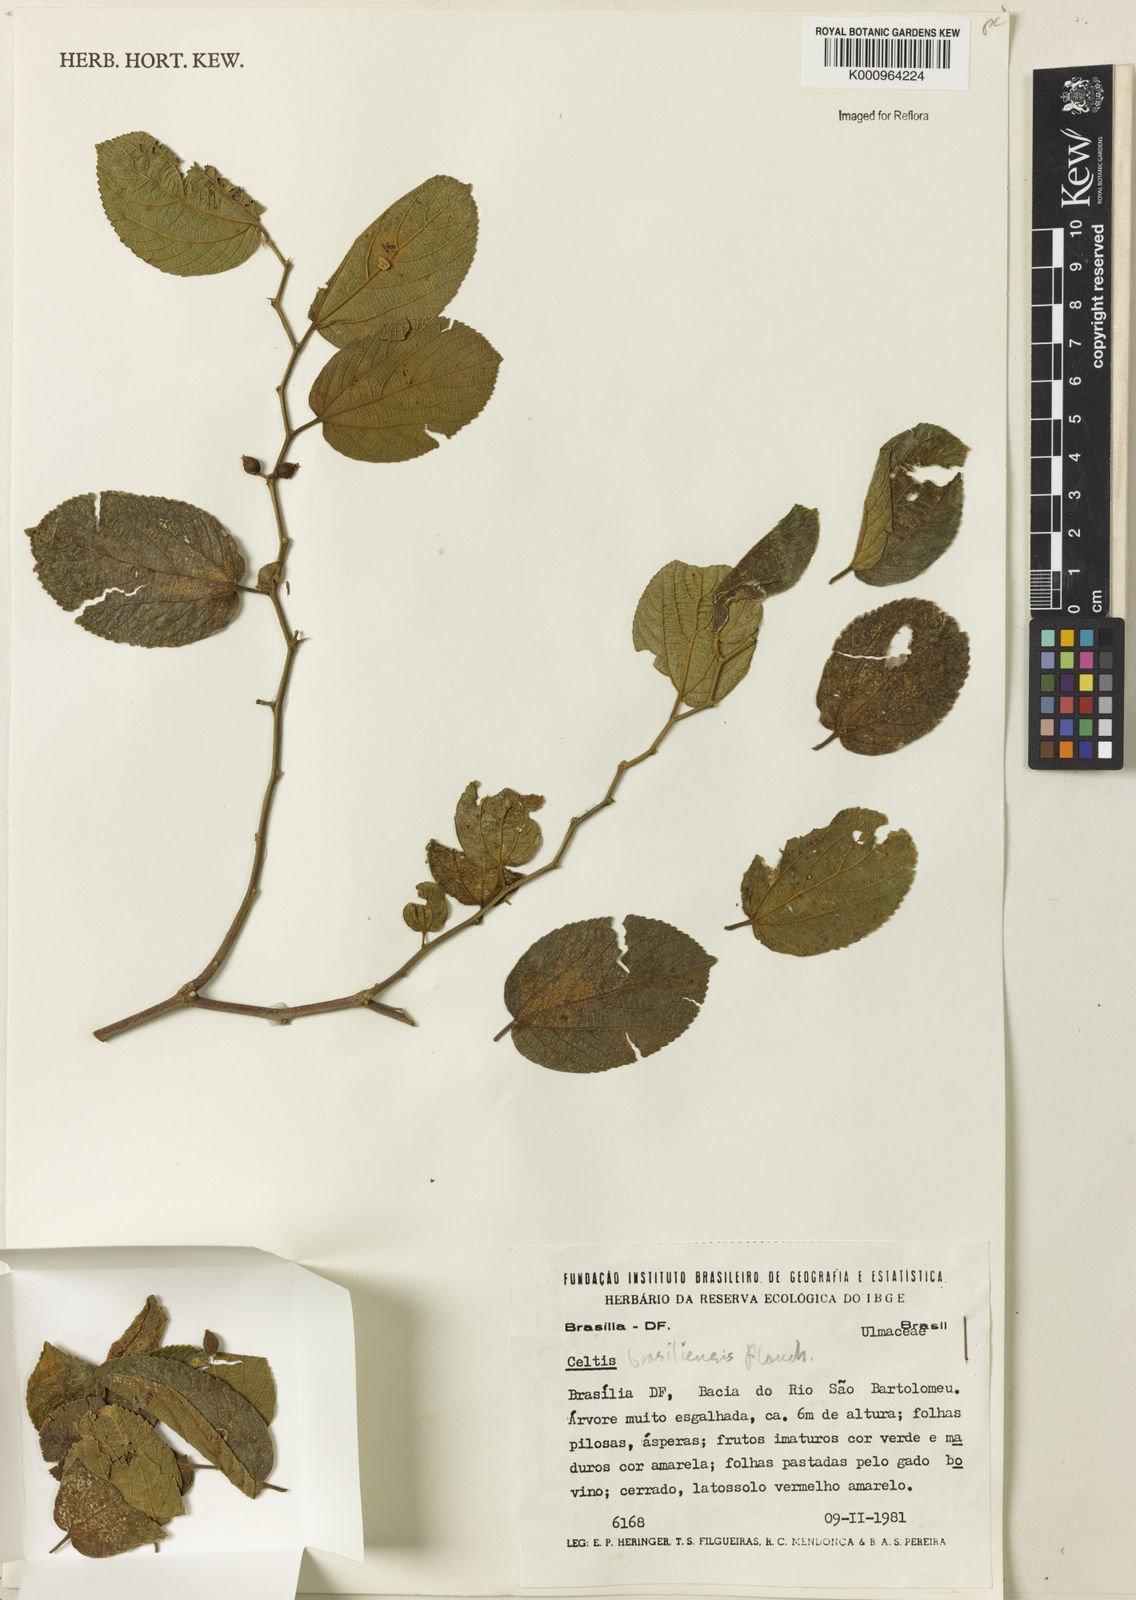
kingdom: Plantae
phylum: Tracheophyta
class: Magnoliopsida
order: Rosales
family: Cannabaceae
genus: Celtis
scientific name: Celtis brasiliensis
